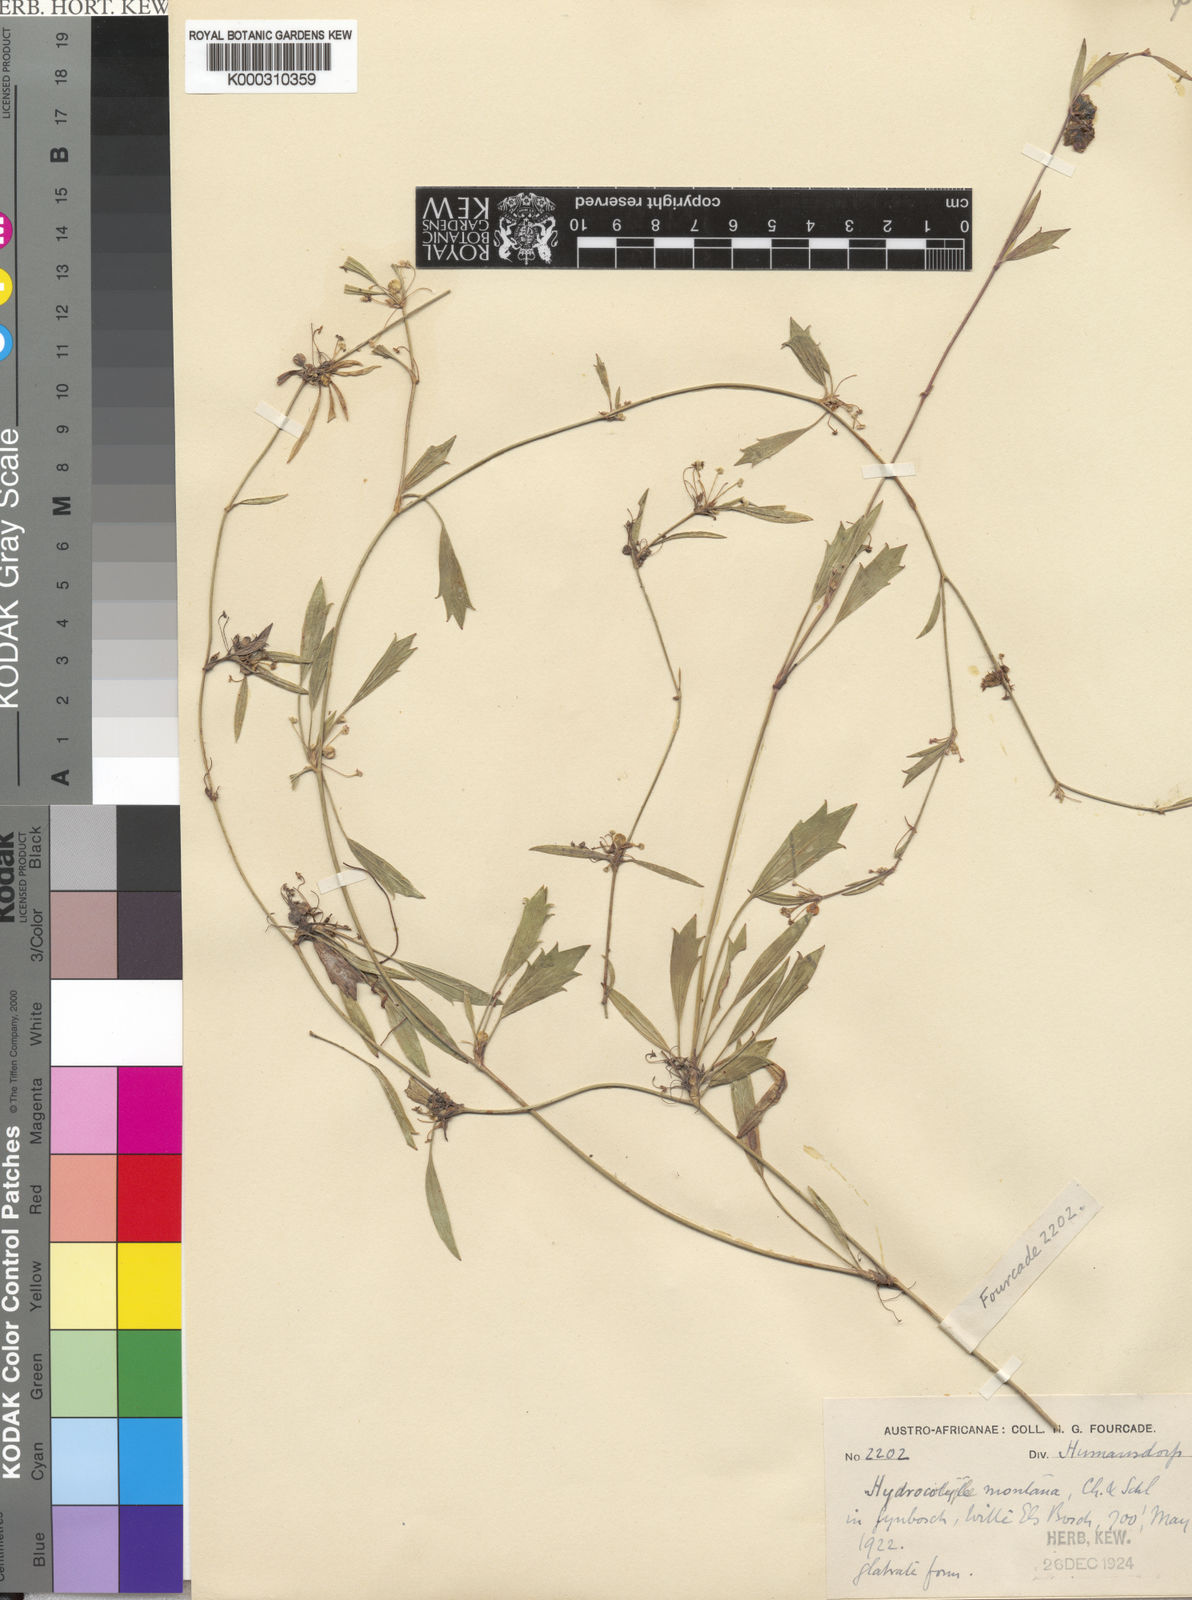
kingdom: Plantae
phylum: Tracheophyta
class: Magnoliopsida
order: Apiales
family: Apiaceae
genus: Centella
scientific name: Centella montana
